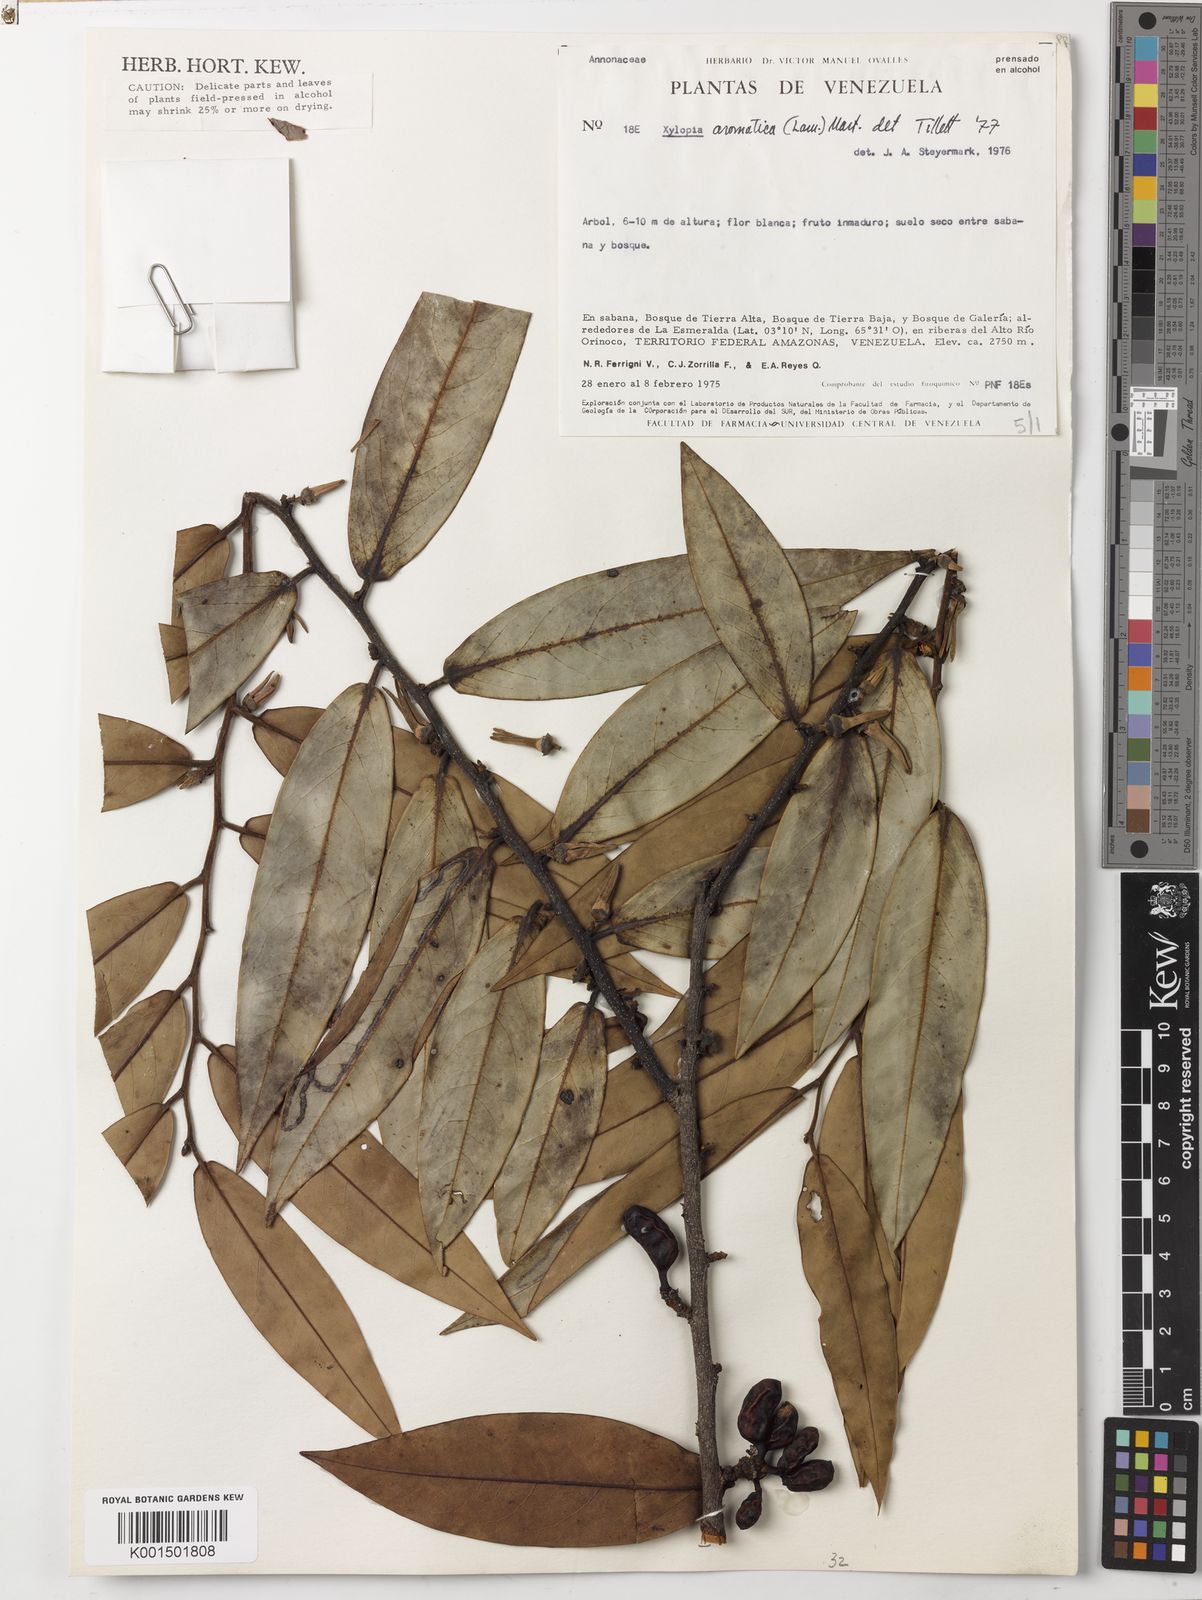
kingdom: Plantae
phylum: Tracheophyta
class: Magnoliopsida
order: Magnoliales
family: Annonaceae
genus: Xylopia
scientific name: Xylopia aromatica
